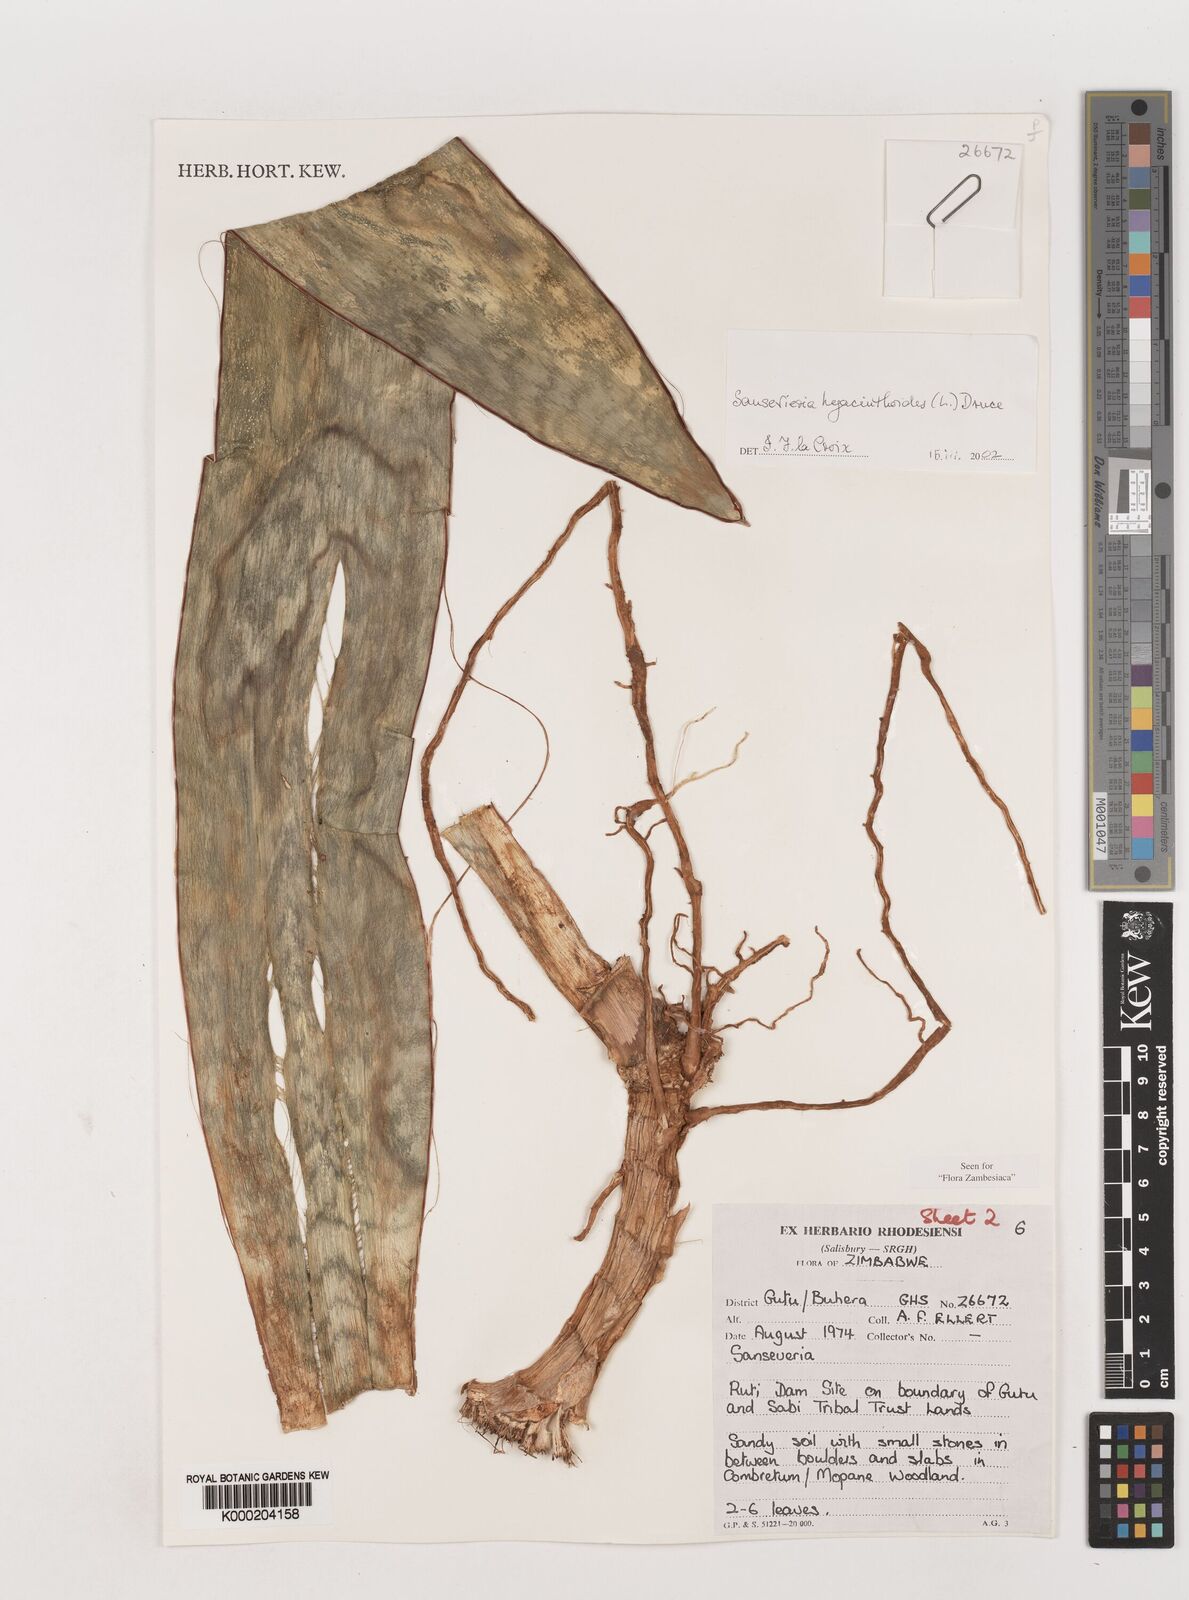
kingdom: Plantae
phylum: Tracheophyta
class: Liliopsida
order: Asparagales
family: Asparagaceae
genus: Dracaena
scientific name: Dracaena hyacinthoides
